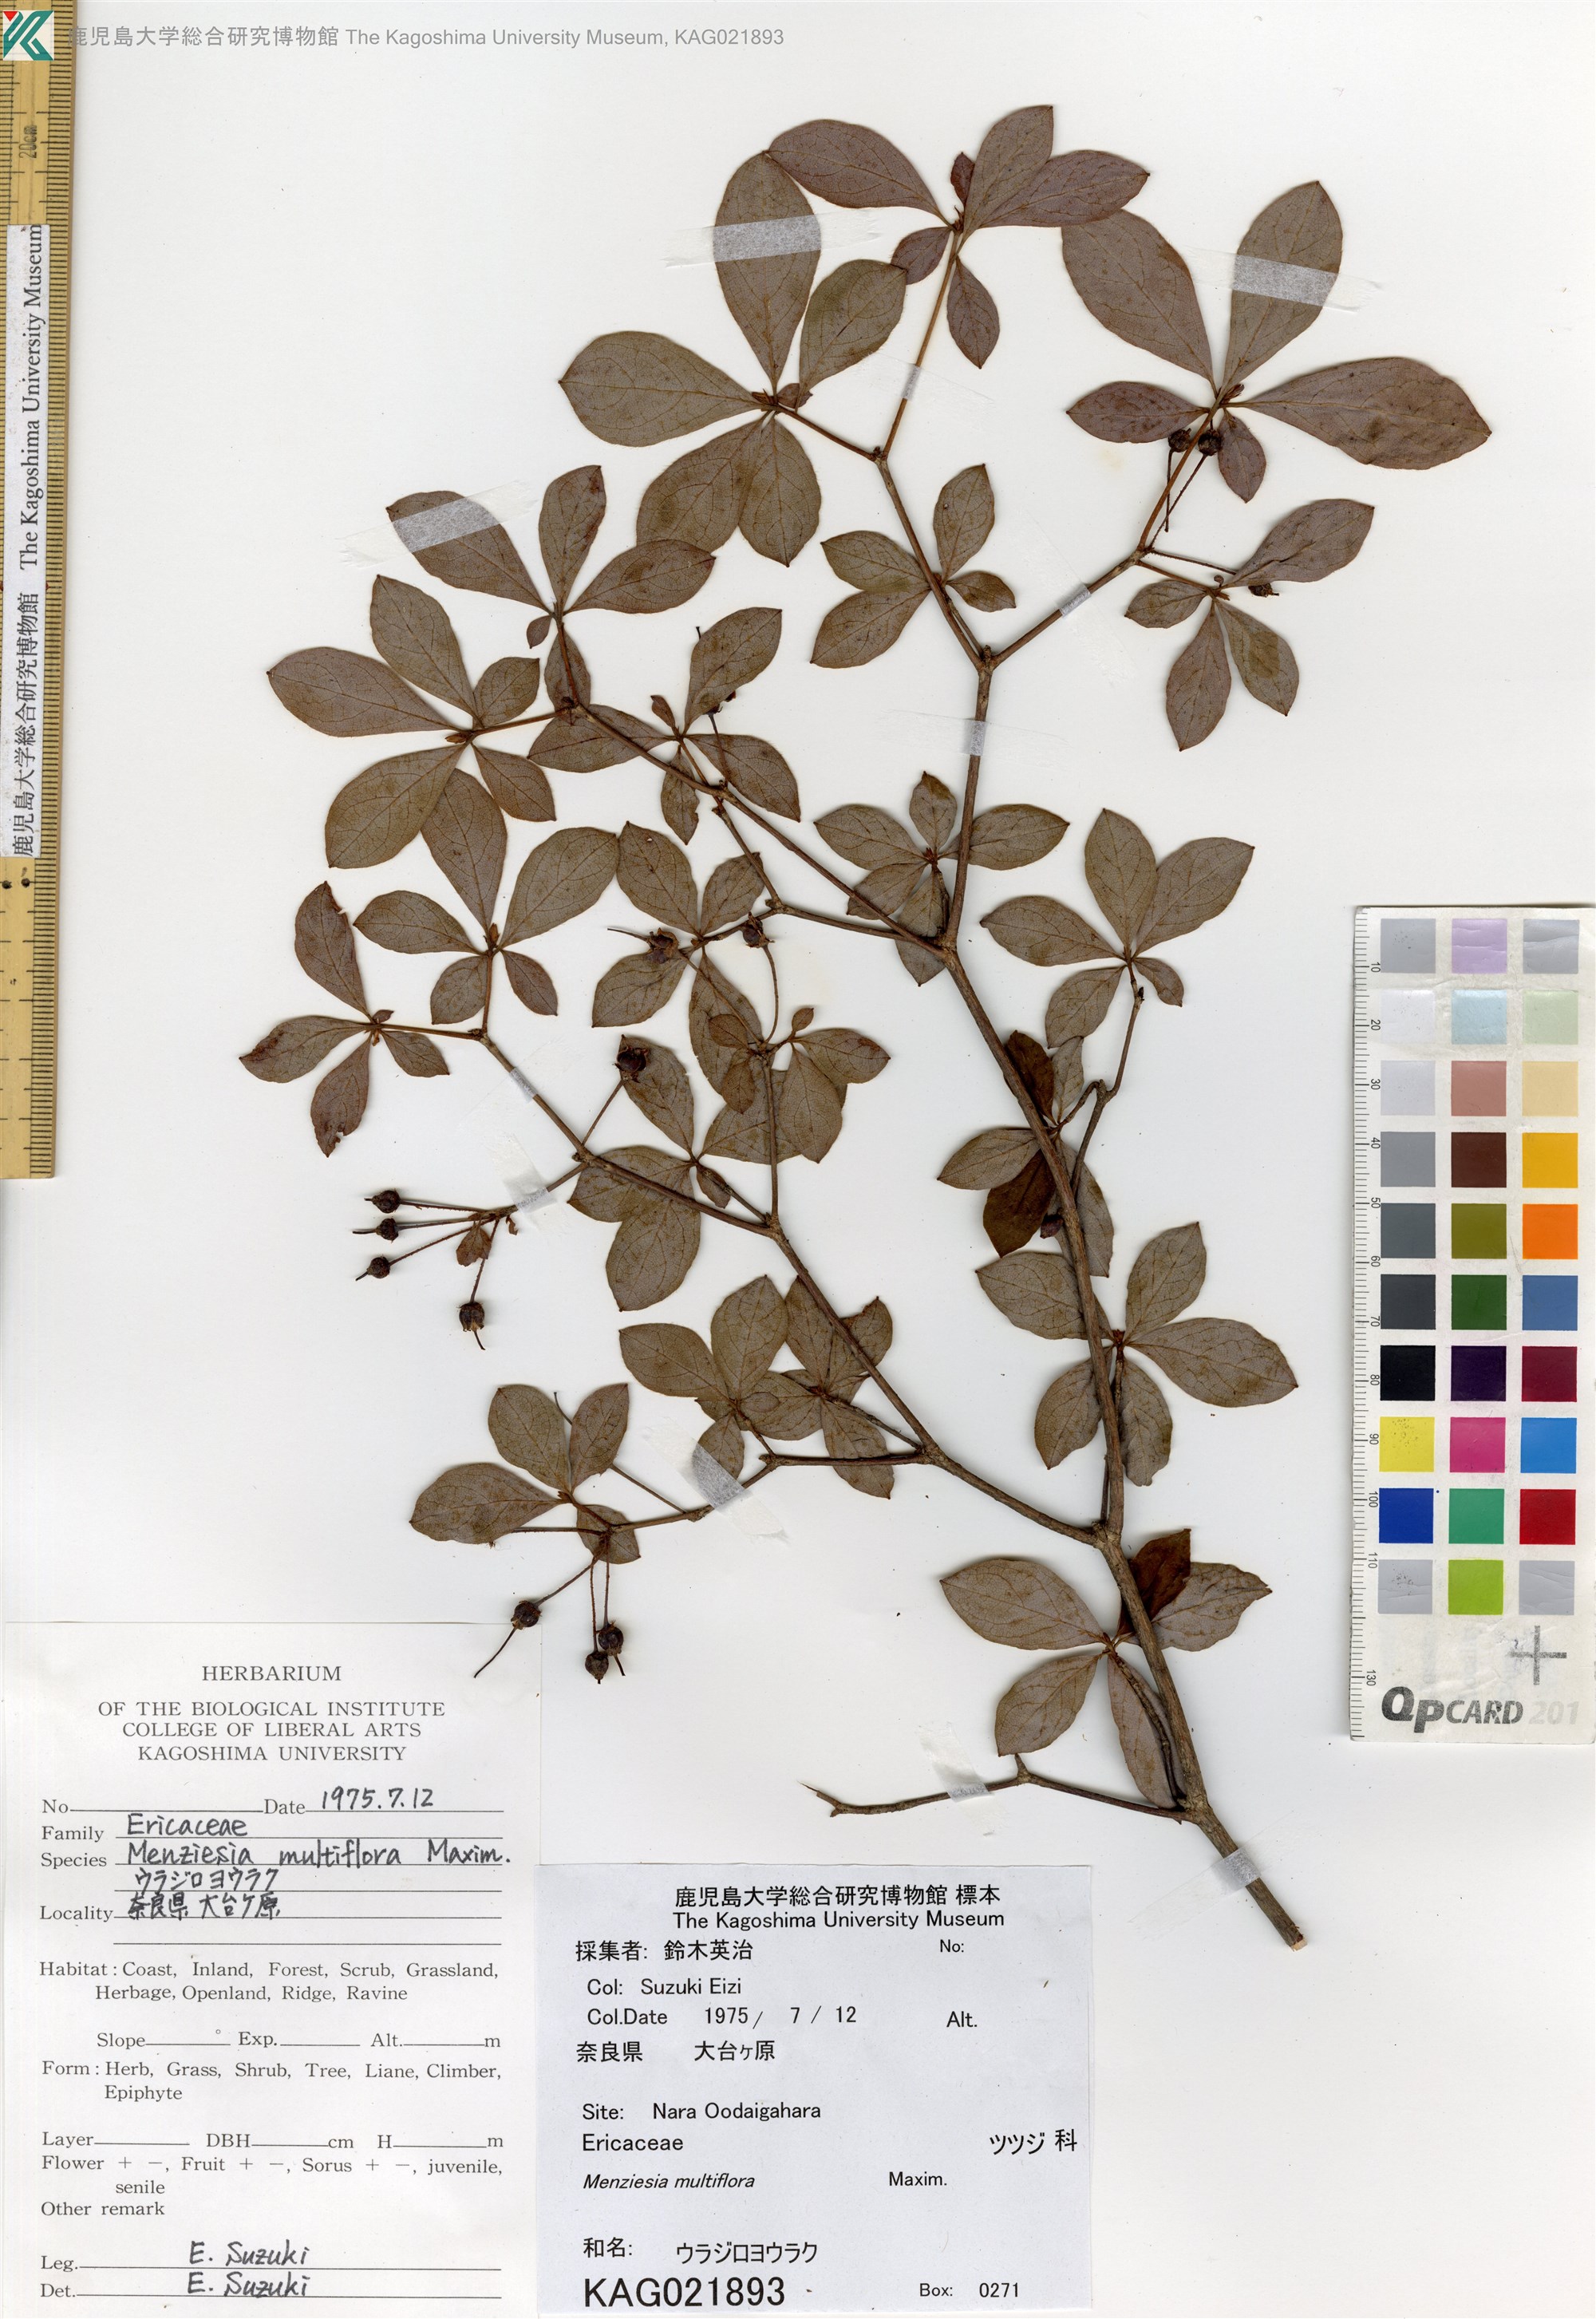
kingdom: Plantae
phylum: Tracheophyta
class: Magnoliopsida
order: Ericales
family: Ericaceae
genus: Rhododendron
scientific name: Rhododendron multiflorum
